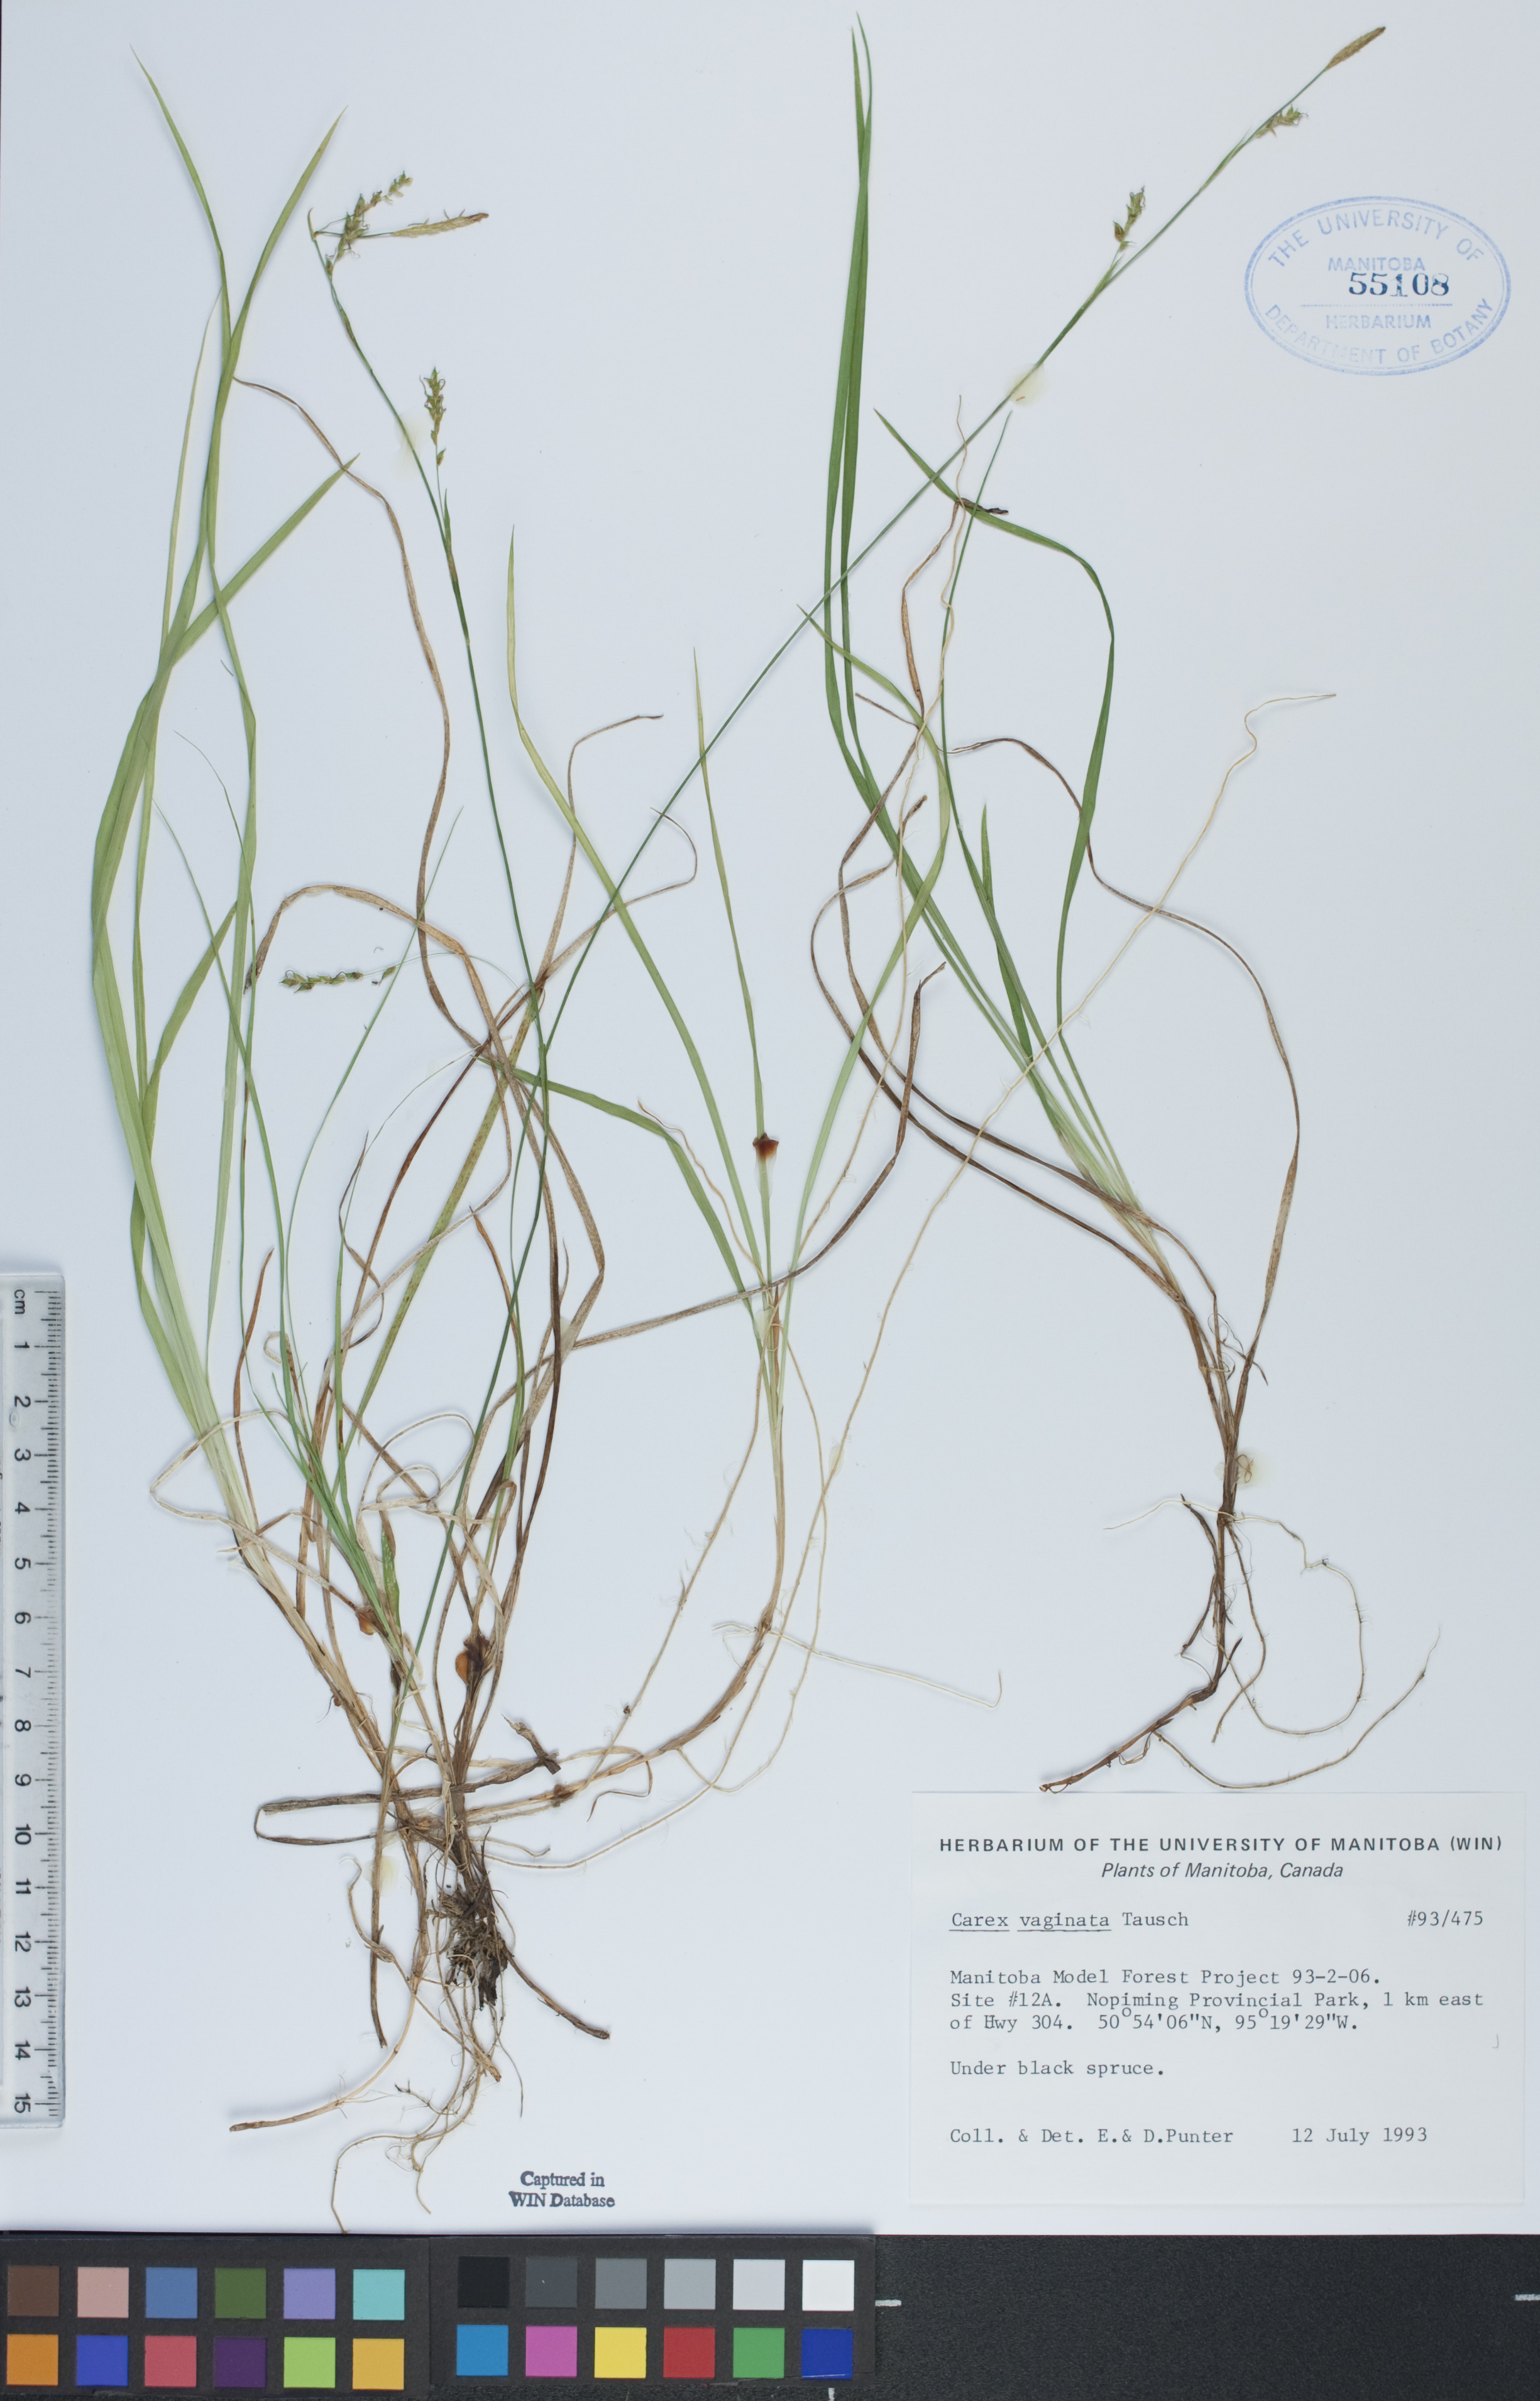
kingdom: Plantae
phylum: Tracheophyta
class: Liliopsida
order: Poales
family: Cyperaceae
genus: Carex
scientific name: Carex vaginata
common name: Sheathed sedge
